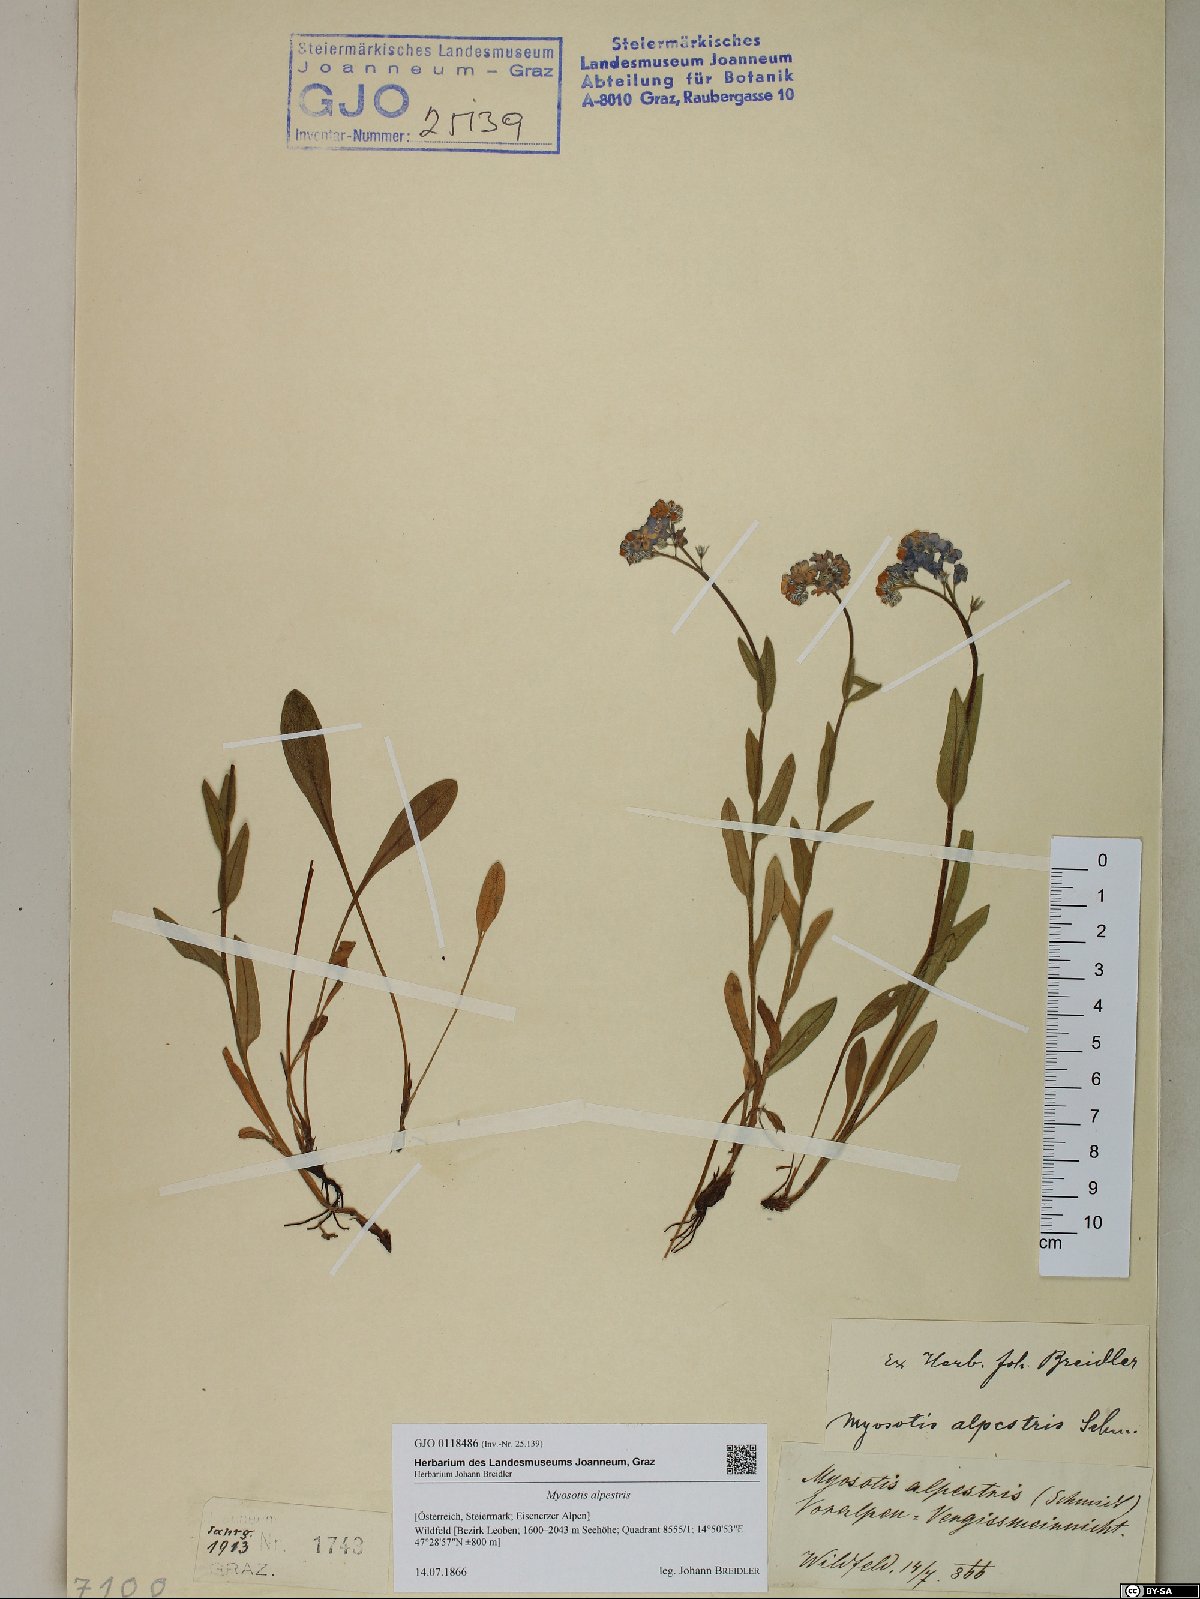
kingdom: Plantae
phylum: Tracheophyta
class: Magnoliopsida
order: Boraginales
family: Boraginaceae
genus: Myosotis
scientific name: Myosotis alpestris
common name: Alpine forget-me-not
